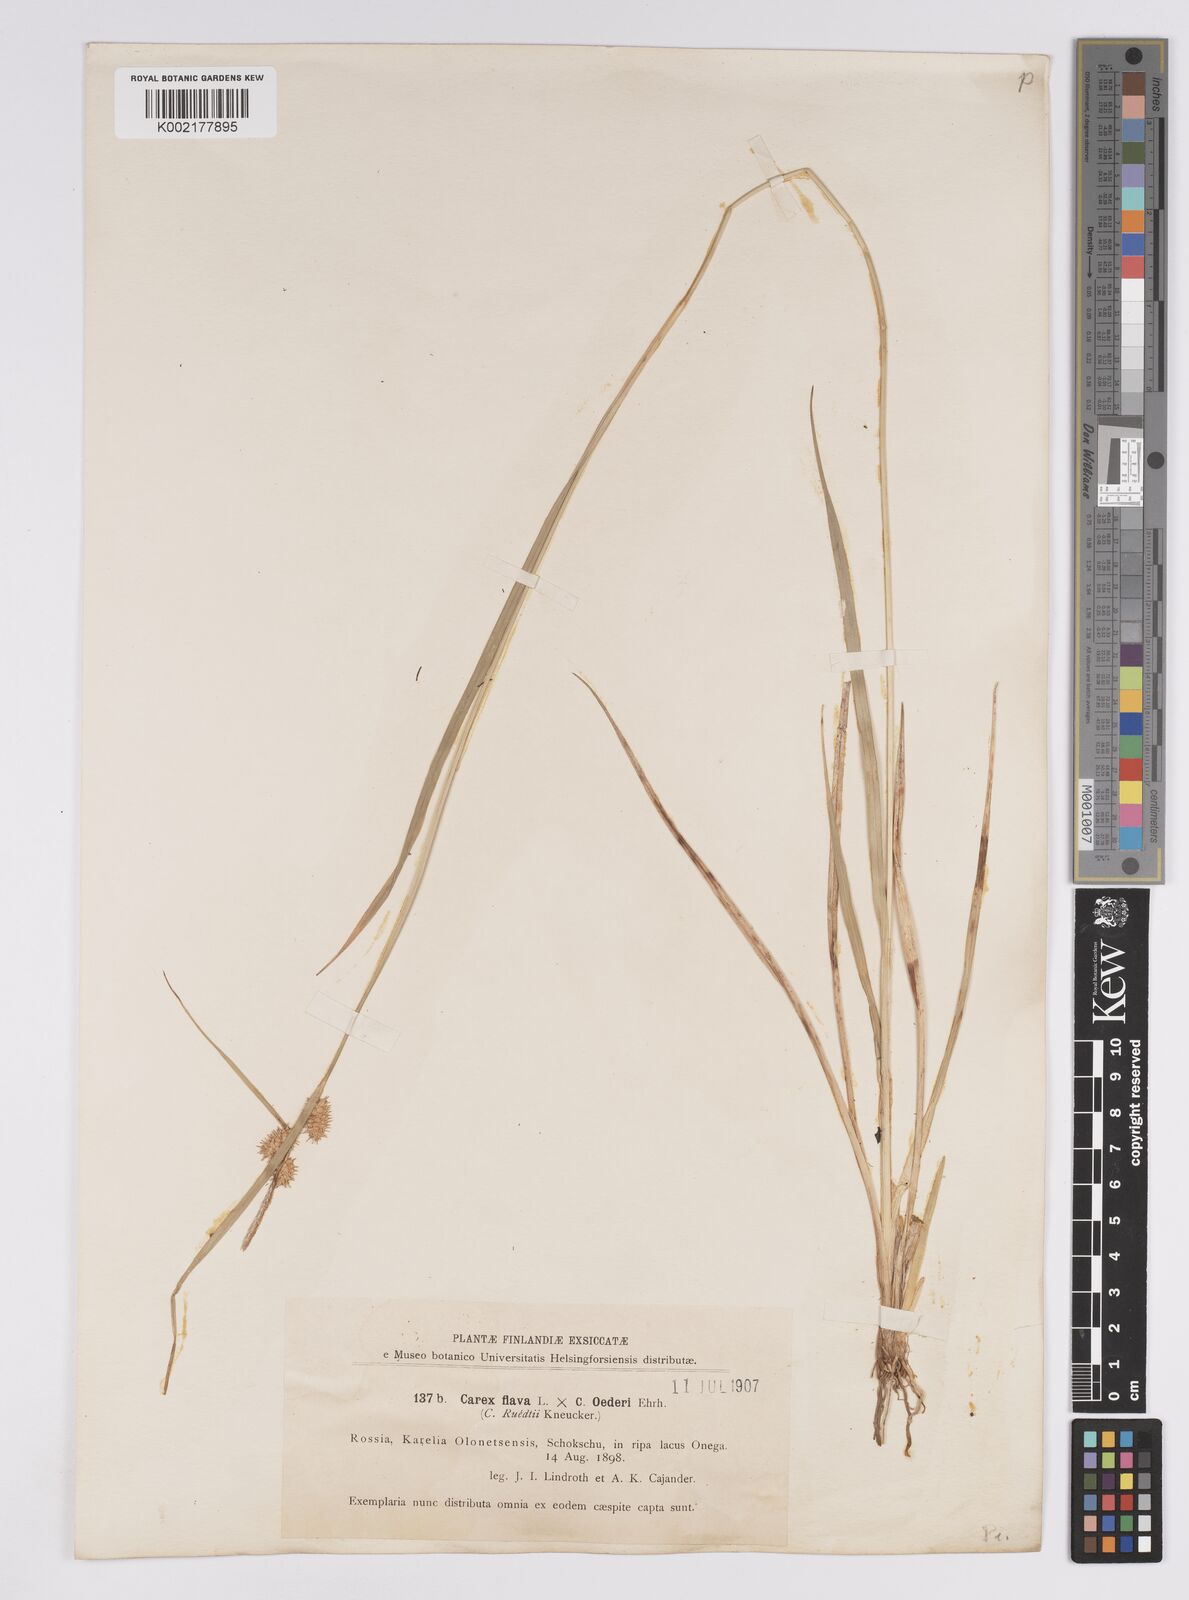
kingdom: Plantae
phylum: Tracheophyta
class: Liliopsida
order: Poales
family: Cyperaceae
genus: Carex
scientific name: Carex flava
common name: Large yellow-sedge
